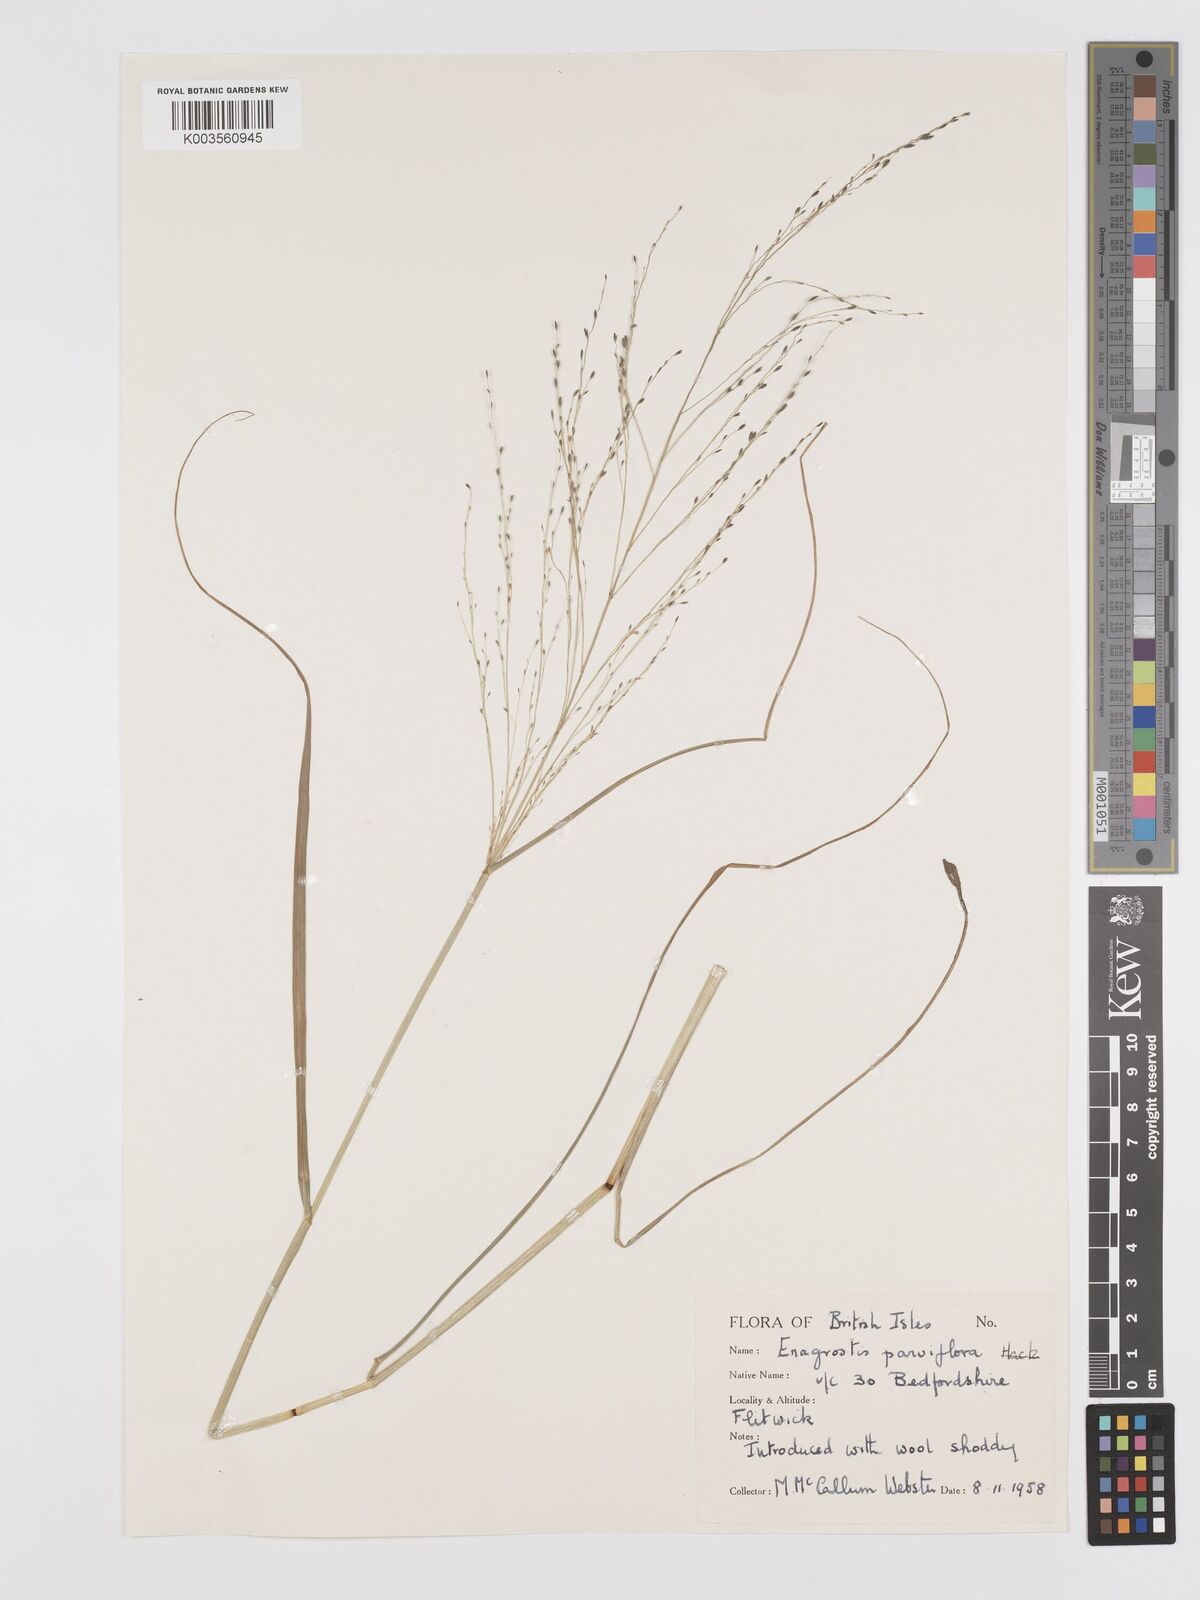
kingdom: Plantae
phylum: Tracheophyta
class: Liliopsida
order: Poales
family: Poaceae
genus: Eragrostis
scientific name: Eragrostis parviflora
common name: Weeping love-grass
